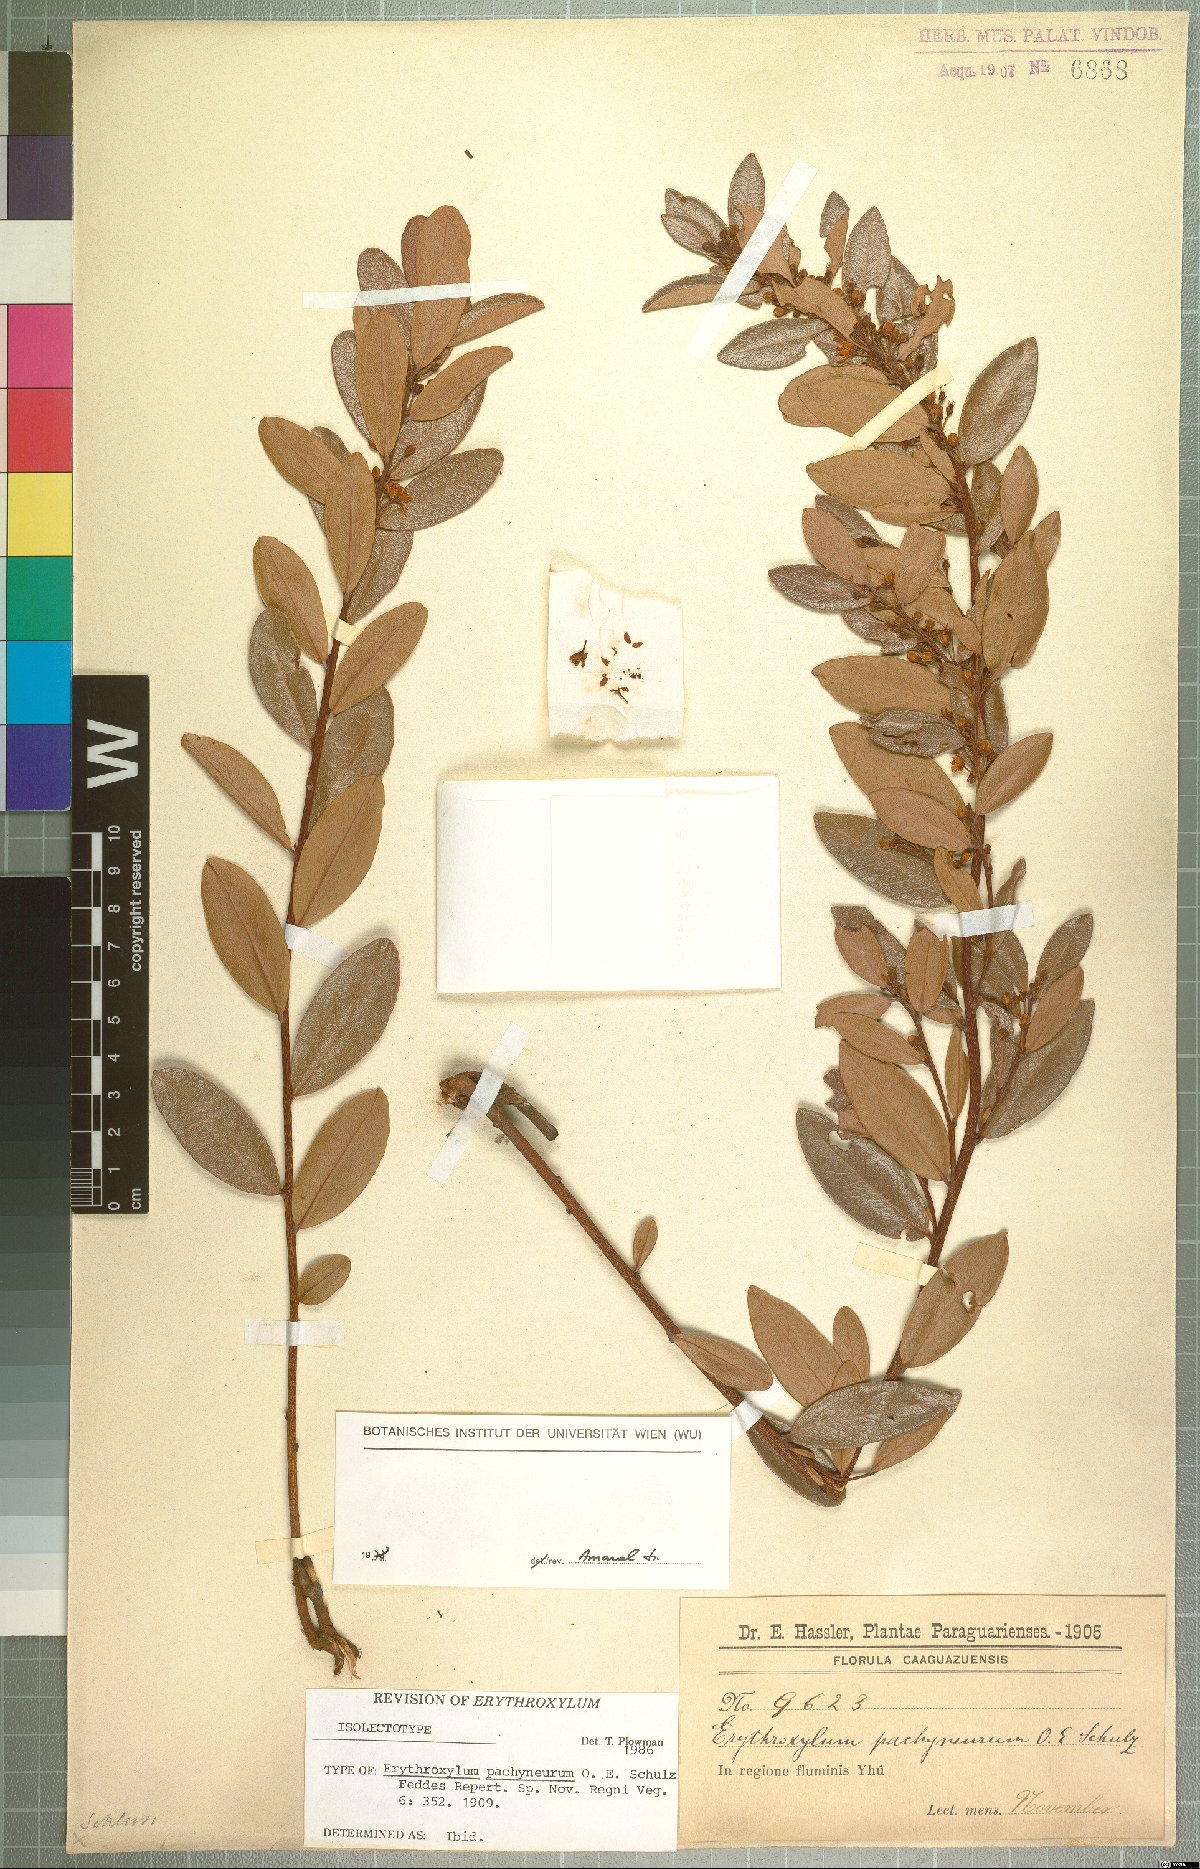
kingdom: Plantae
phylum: Tracheophyta
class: Magnoliopsida
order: Malpighiales
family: Erythroxylaceae
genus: Erythroxylum
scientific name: Erythroxylum pachyneurum
